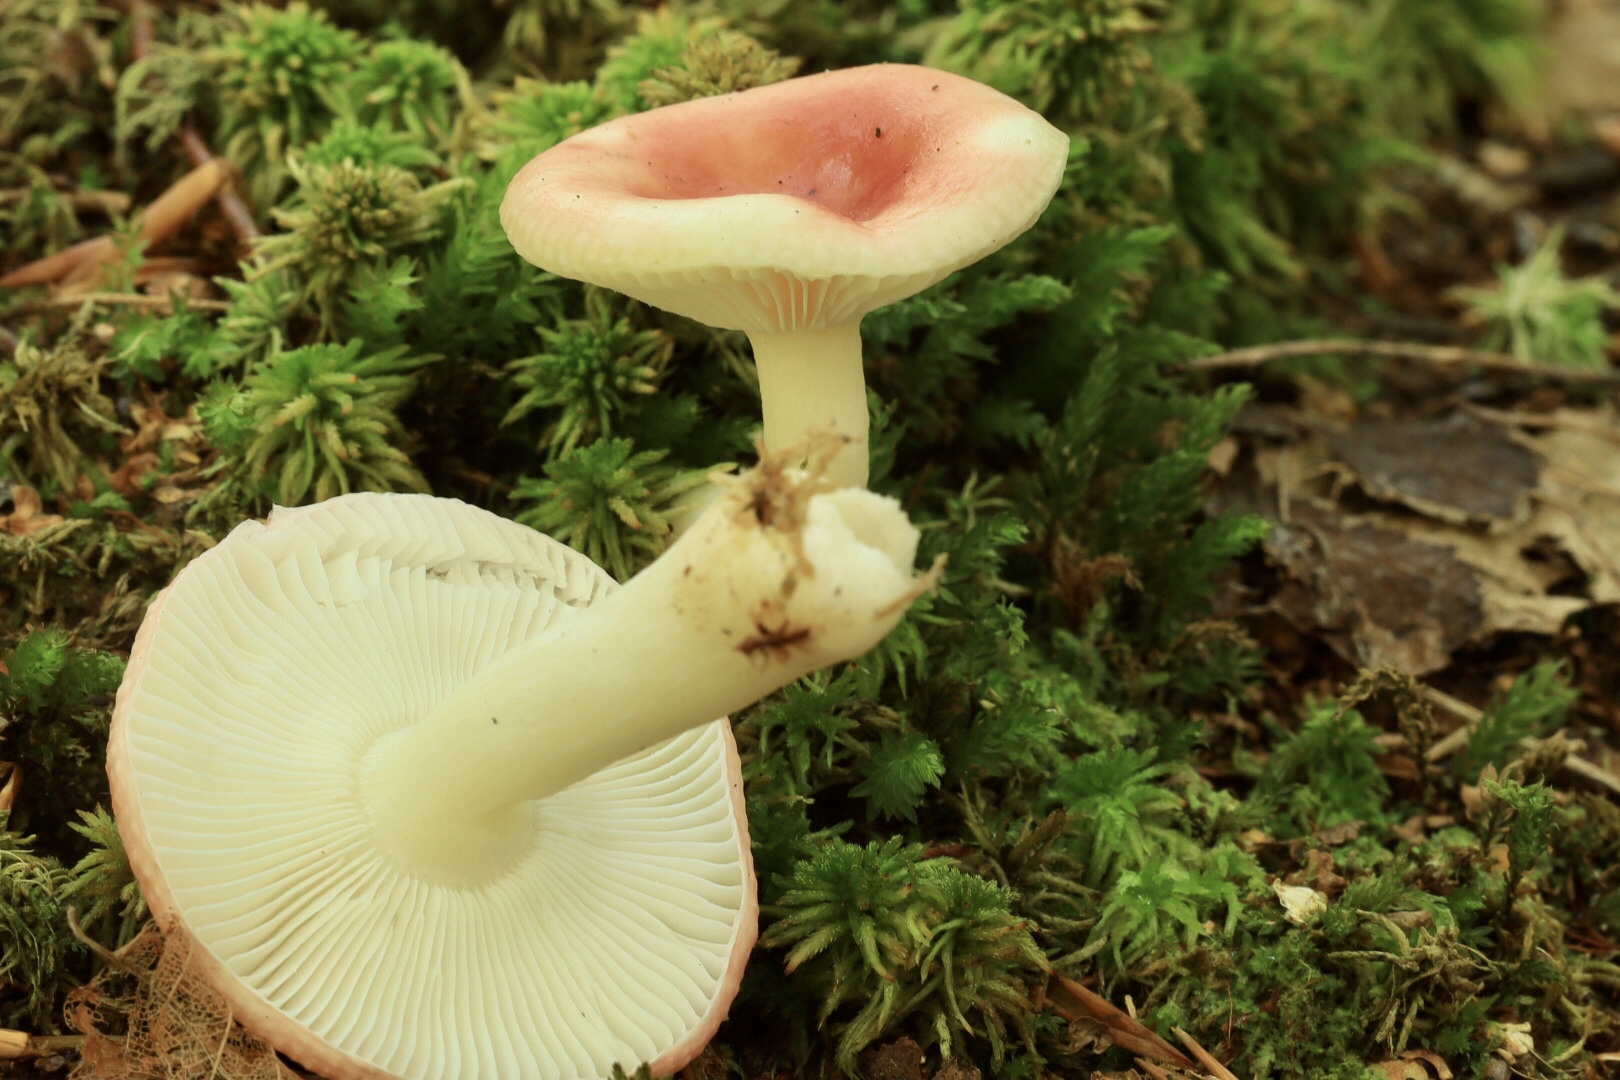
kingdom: Fungi
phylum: Basidiomycota
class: Agaricomycetes
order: Russulales
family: Russulaceae
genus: Russula
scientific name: Russula betularum
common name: bleg gift-skørhat
